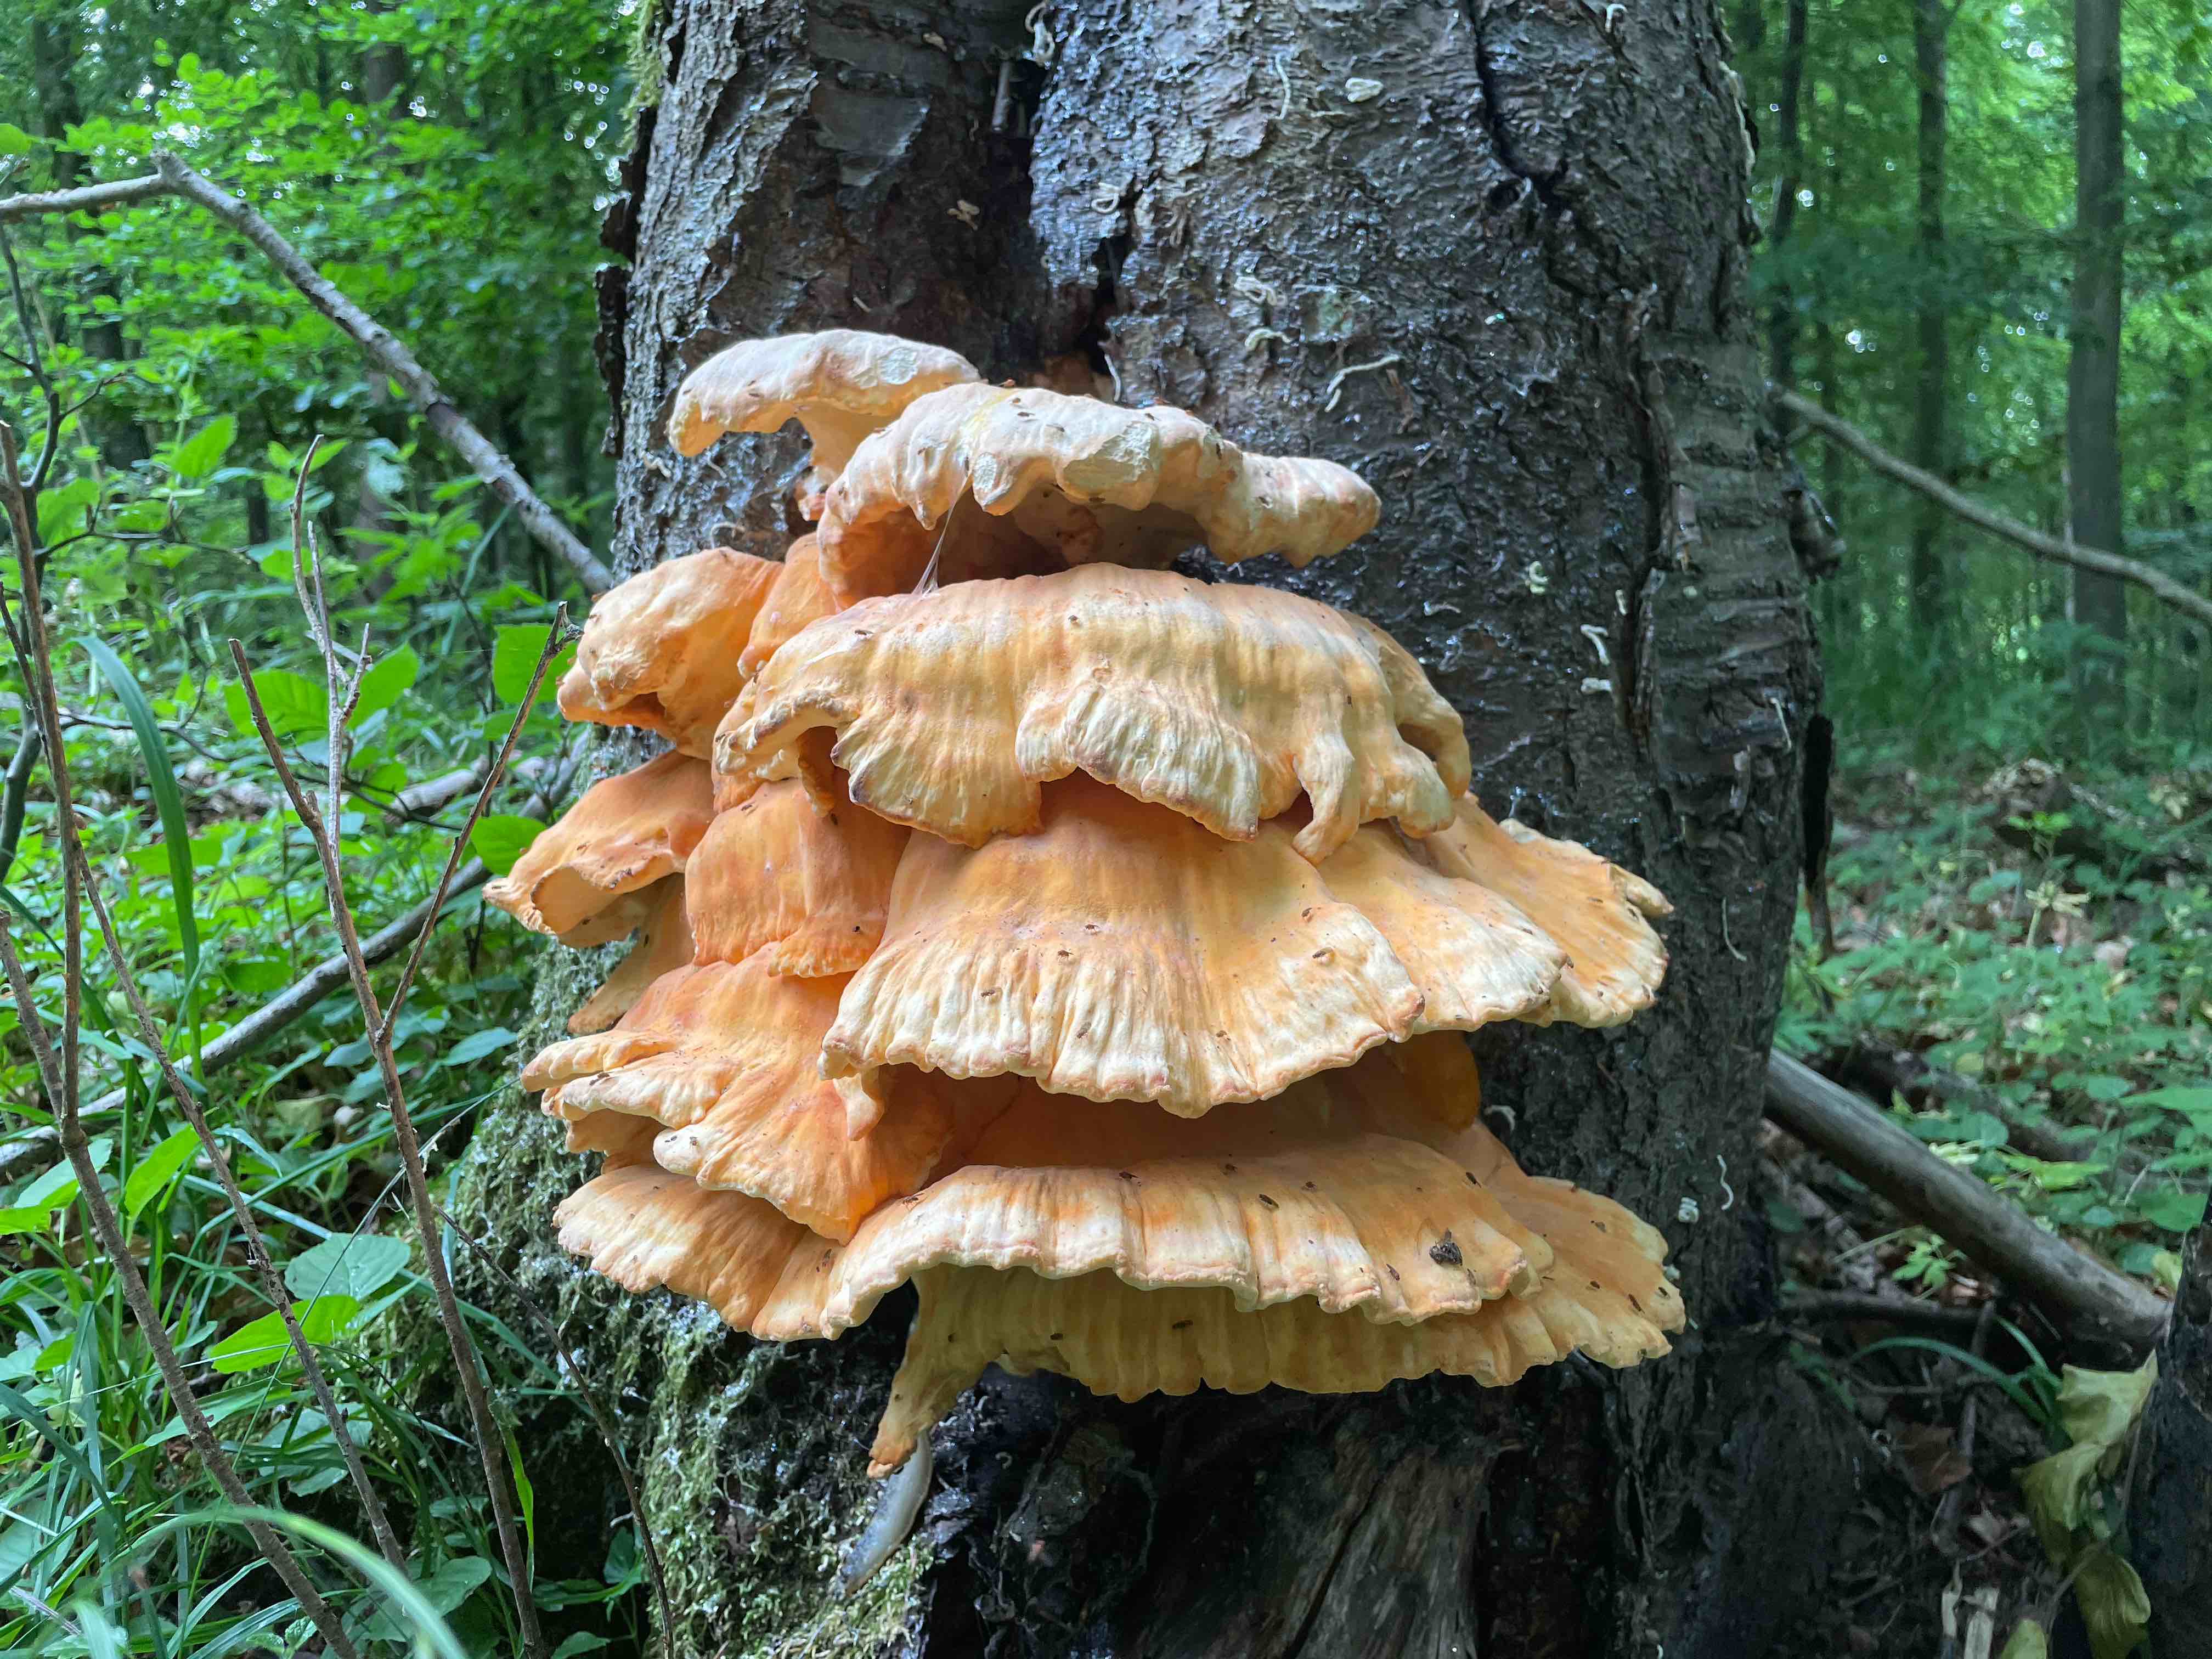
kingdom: Fungi
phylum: Basidiomycota
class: Agaricomycetes
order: Polyporales
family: Laetiporaceae
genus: Laetiporus
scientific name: Laetiporus sulphureus
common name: svovlporesvamp
